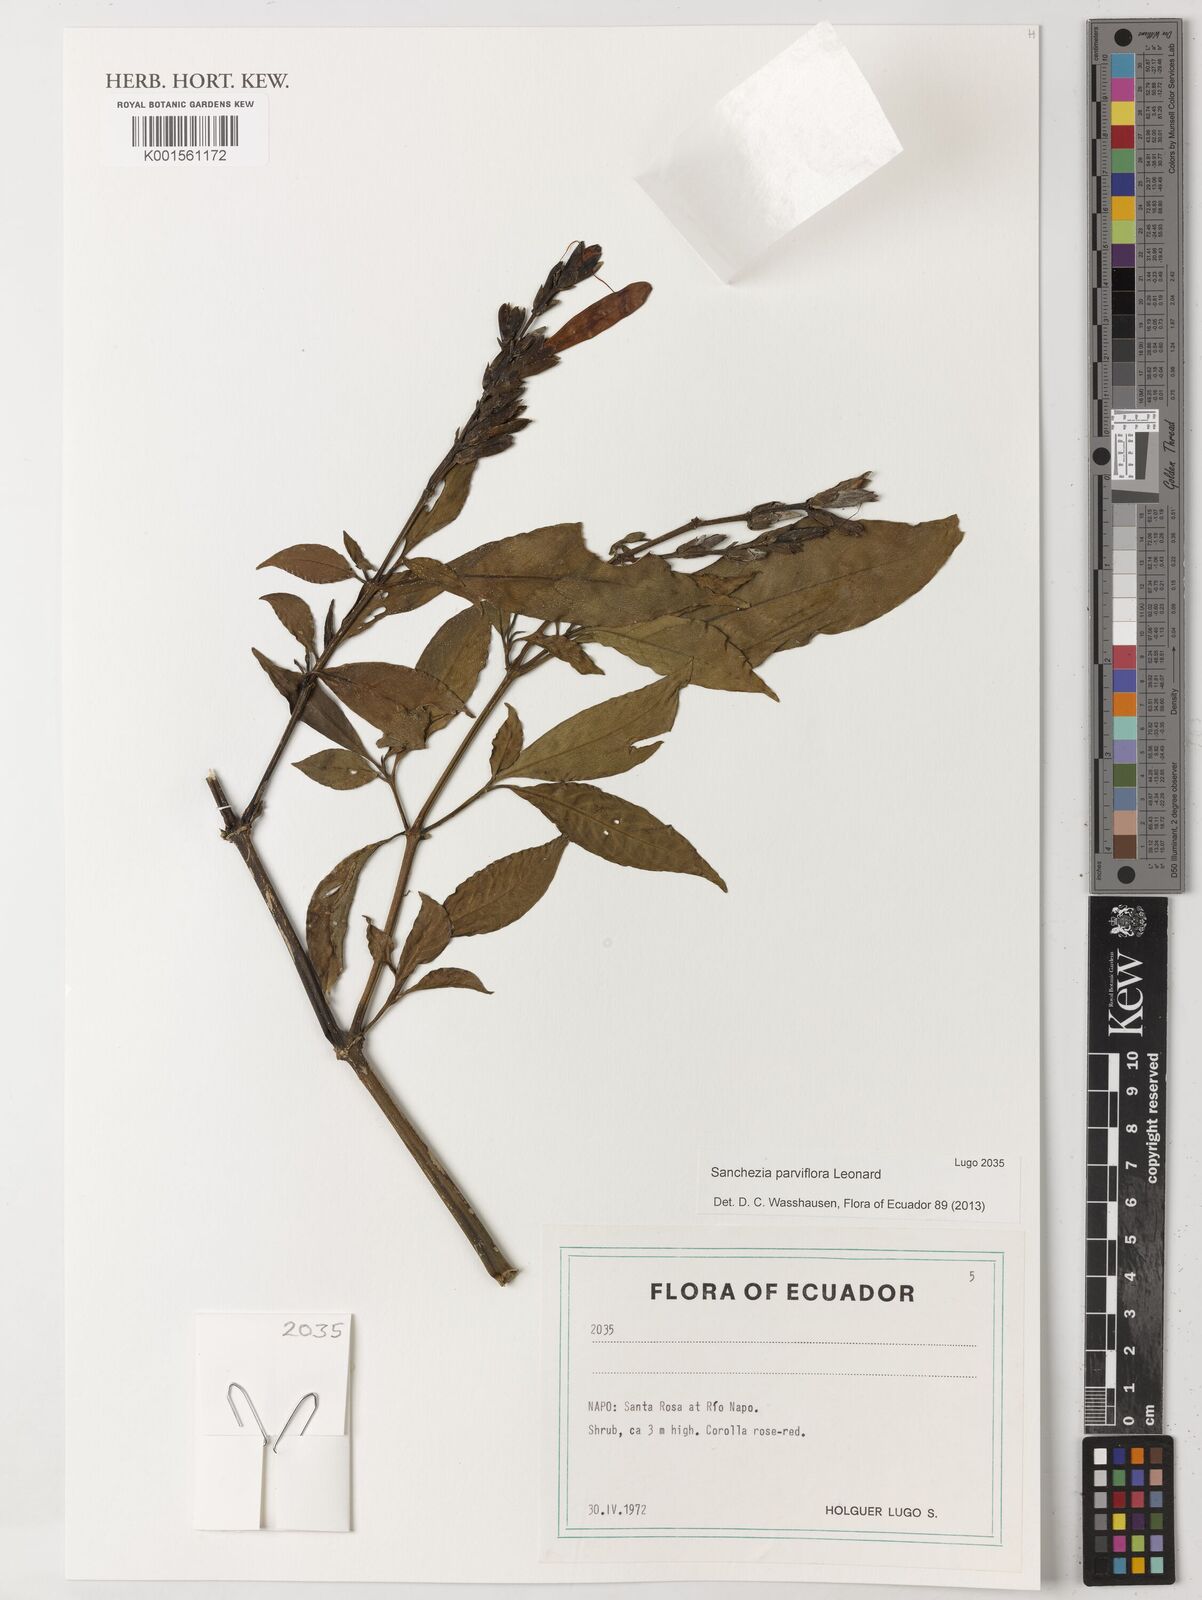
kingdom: Plantae
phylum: Tracheophyta
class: Magnoliopsida
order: Lamiales
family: Acanthaceae
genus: Sanchezia
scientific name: Sanchezia parviflora
